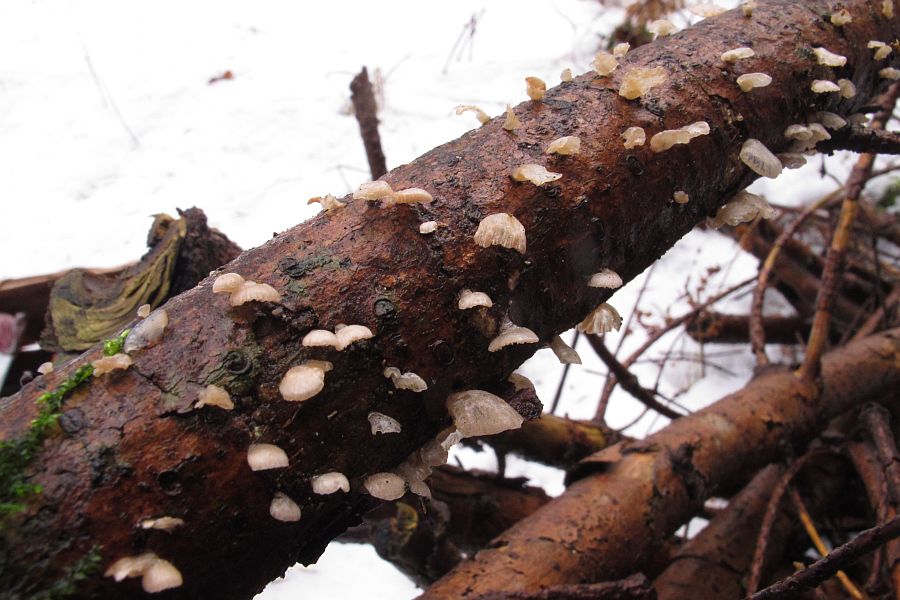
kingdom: Fungi
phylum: Basidiomycota
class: Agaricomycetes
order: Agaricales
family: Mycenaceae
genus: Panellus
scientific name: Panellus mitis
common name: mild epaulethat
